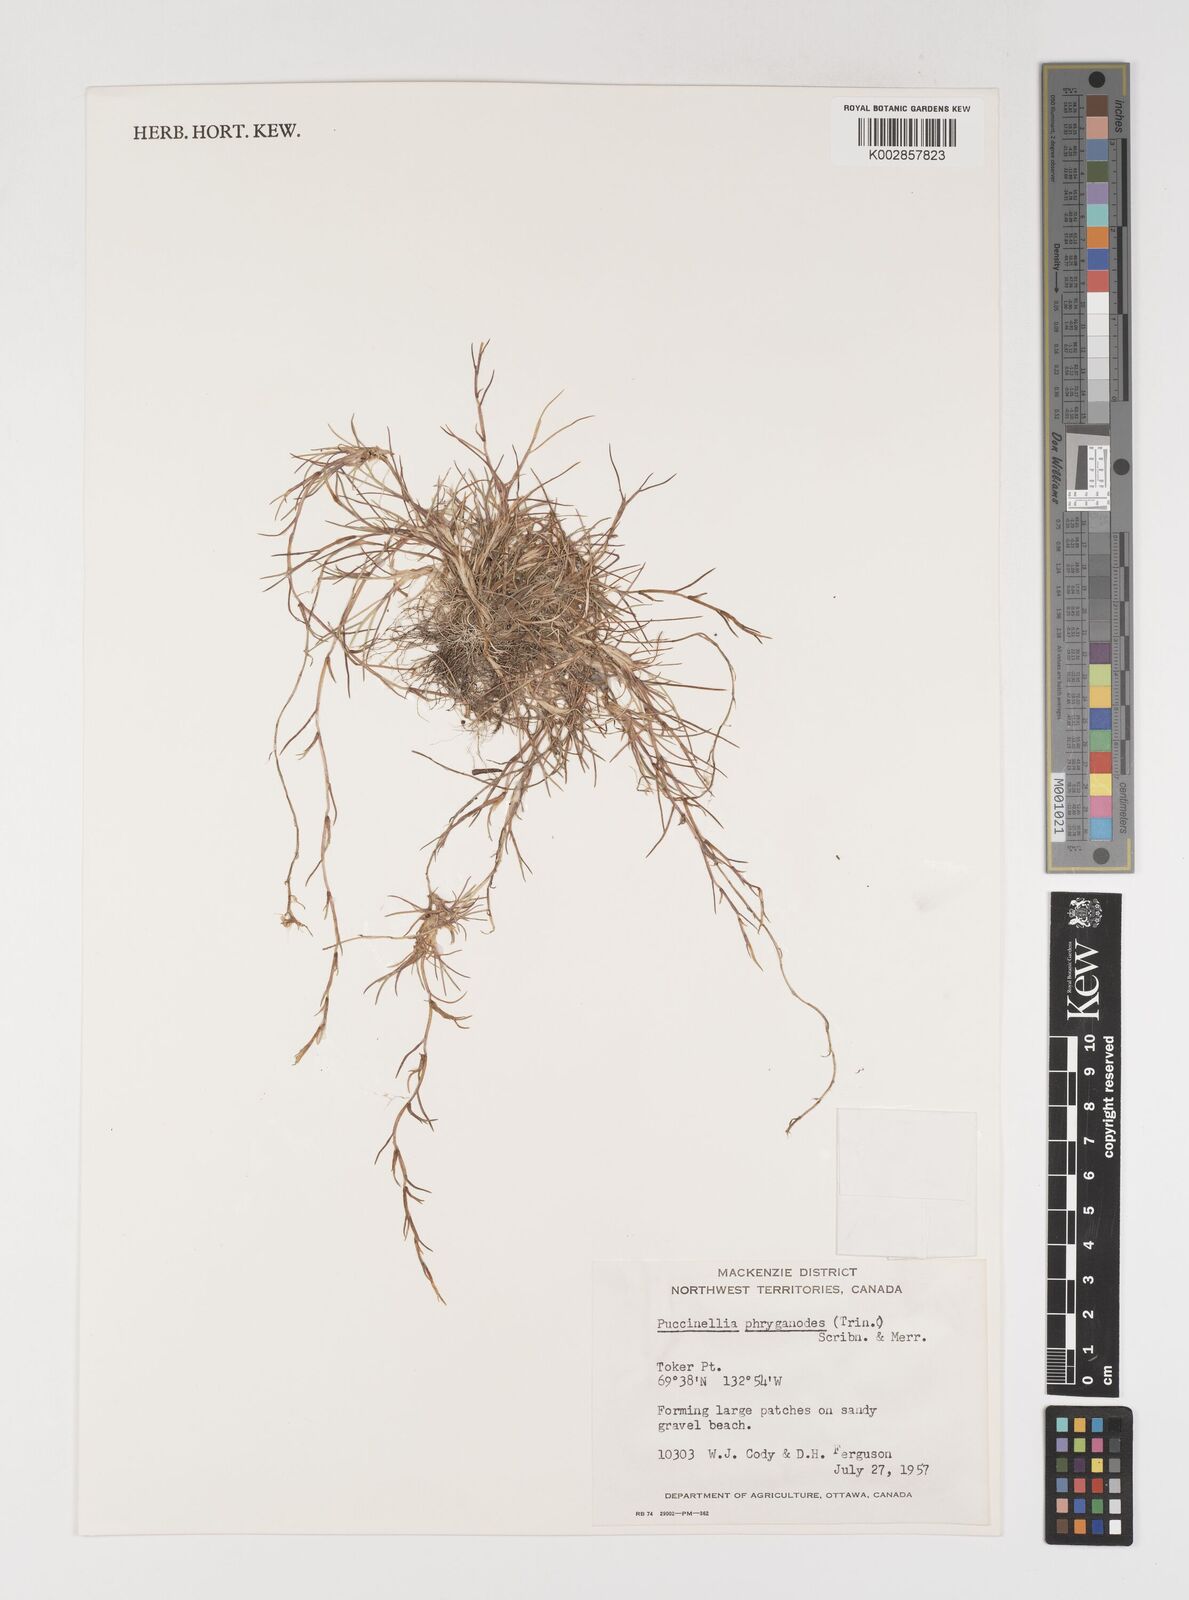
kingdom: Plantae
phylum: Tracheophyta
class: Liliopsida
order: Poales
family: Poaceae
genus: Puccinellia
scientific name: Puccinellia phryganodes
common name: Creeping alkaligrass
